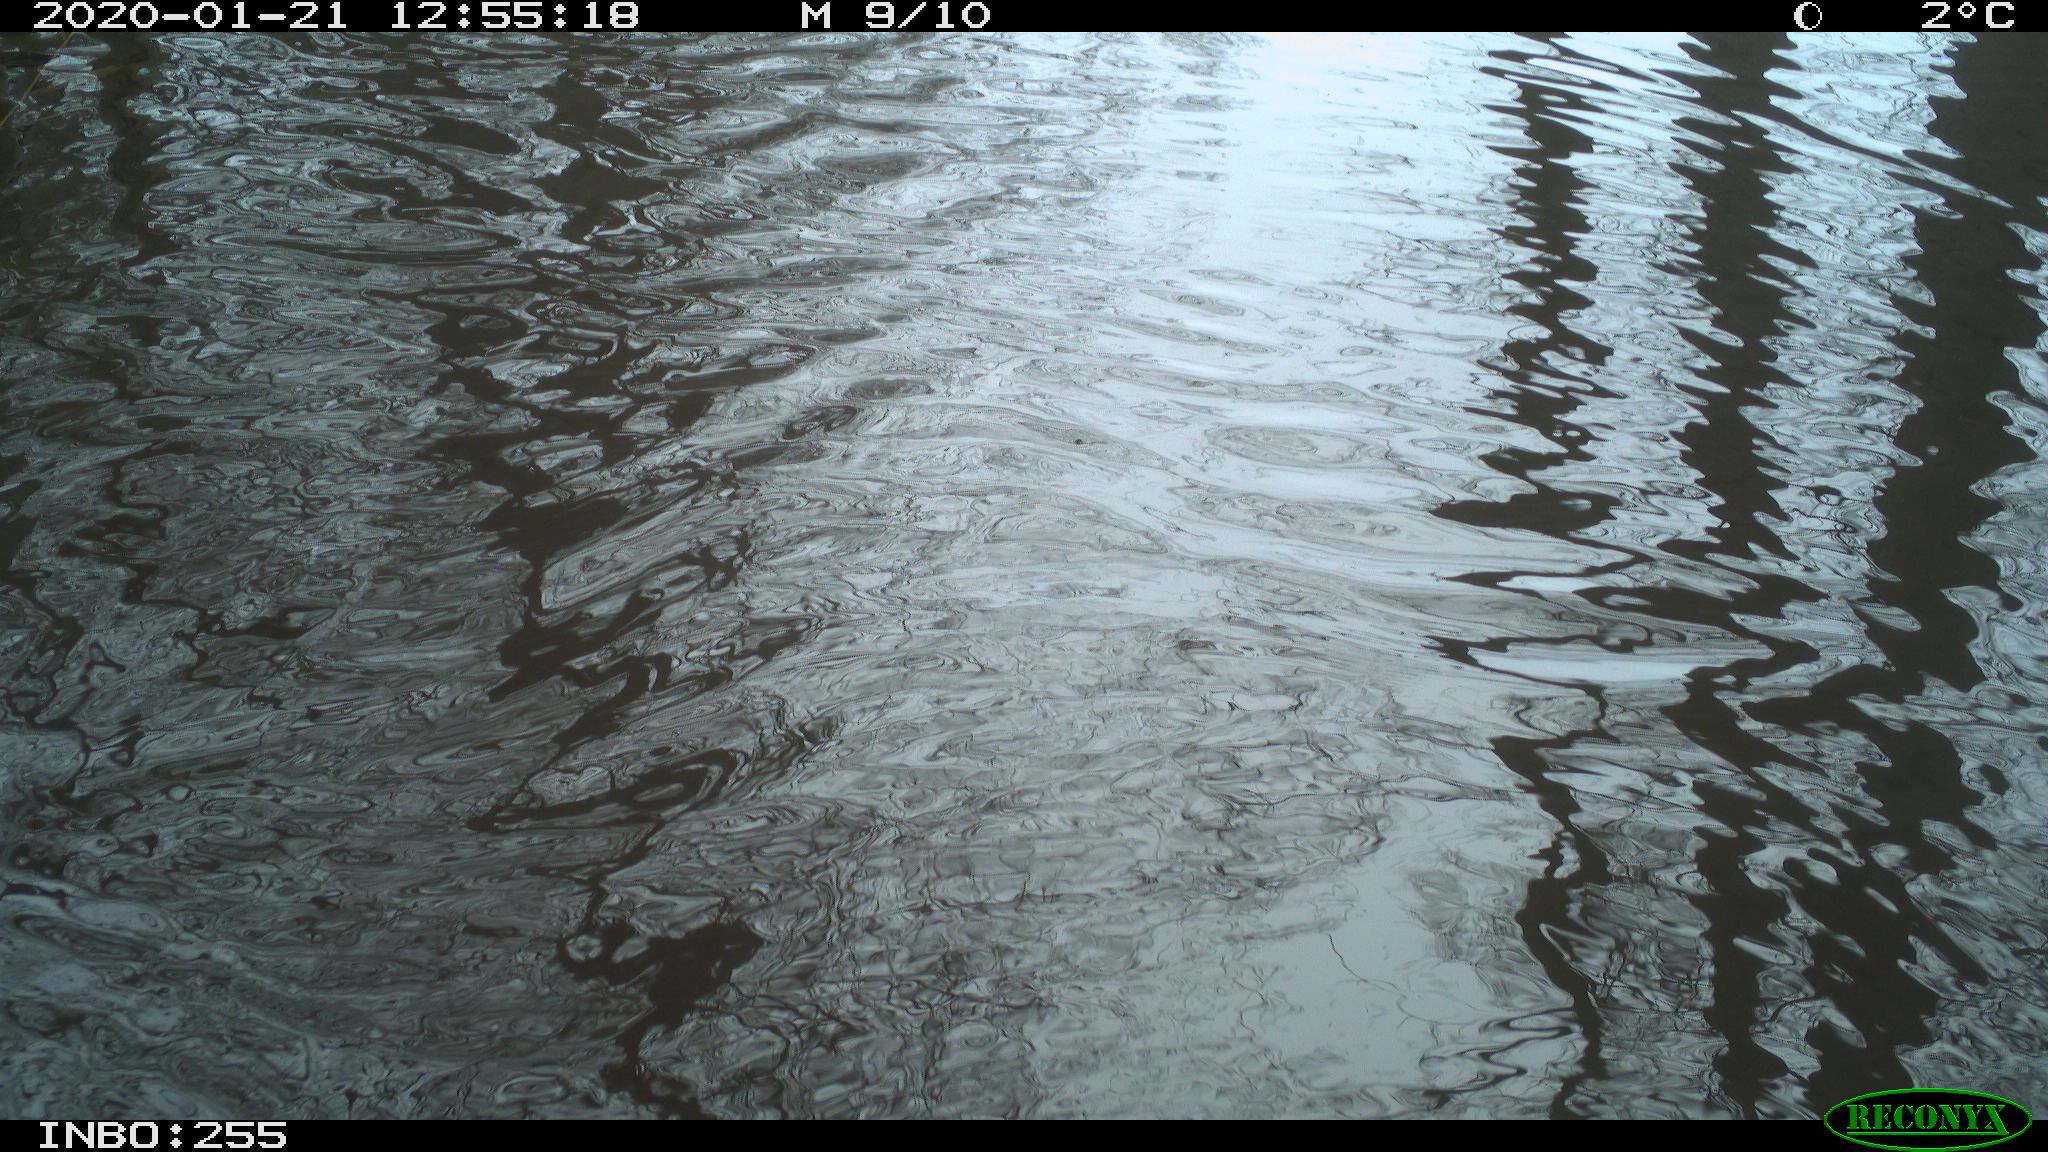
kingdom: Animalia
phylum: Chordata
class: Aves
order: Gruiformes
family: Rallidae
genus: Gallinula
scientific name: Gallinula chloropus
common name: Common moorhen
